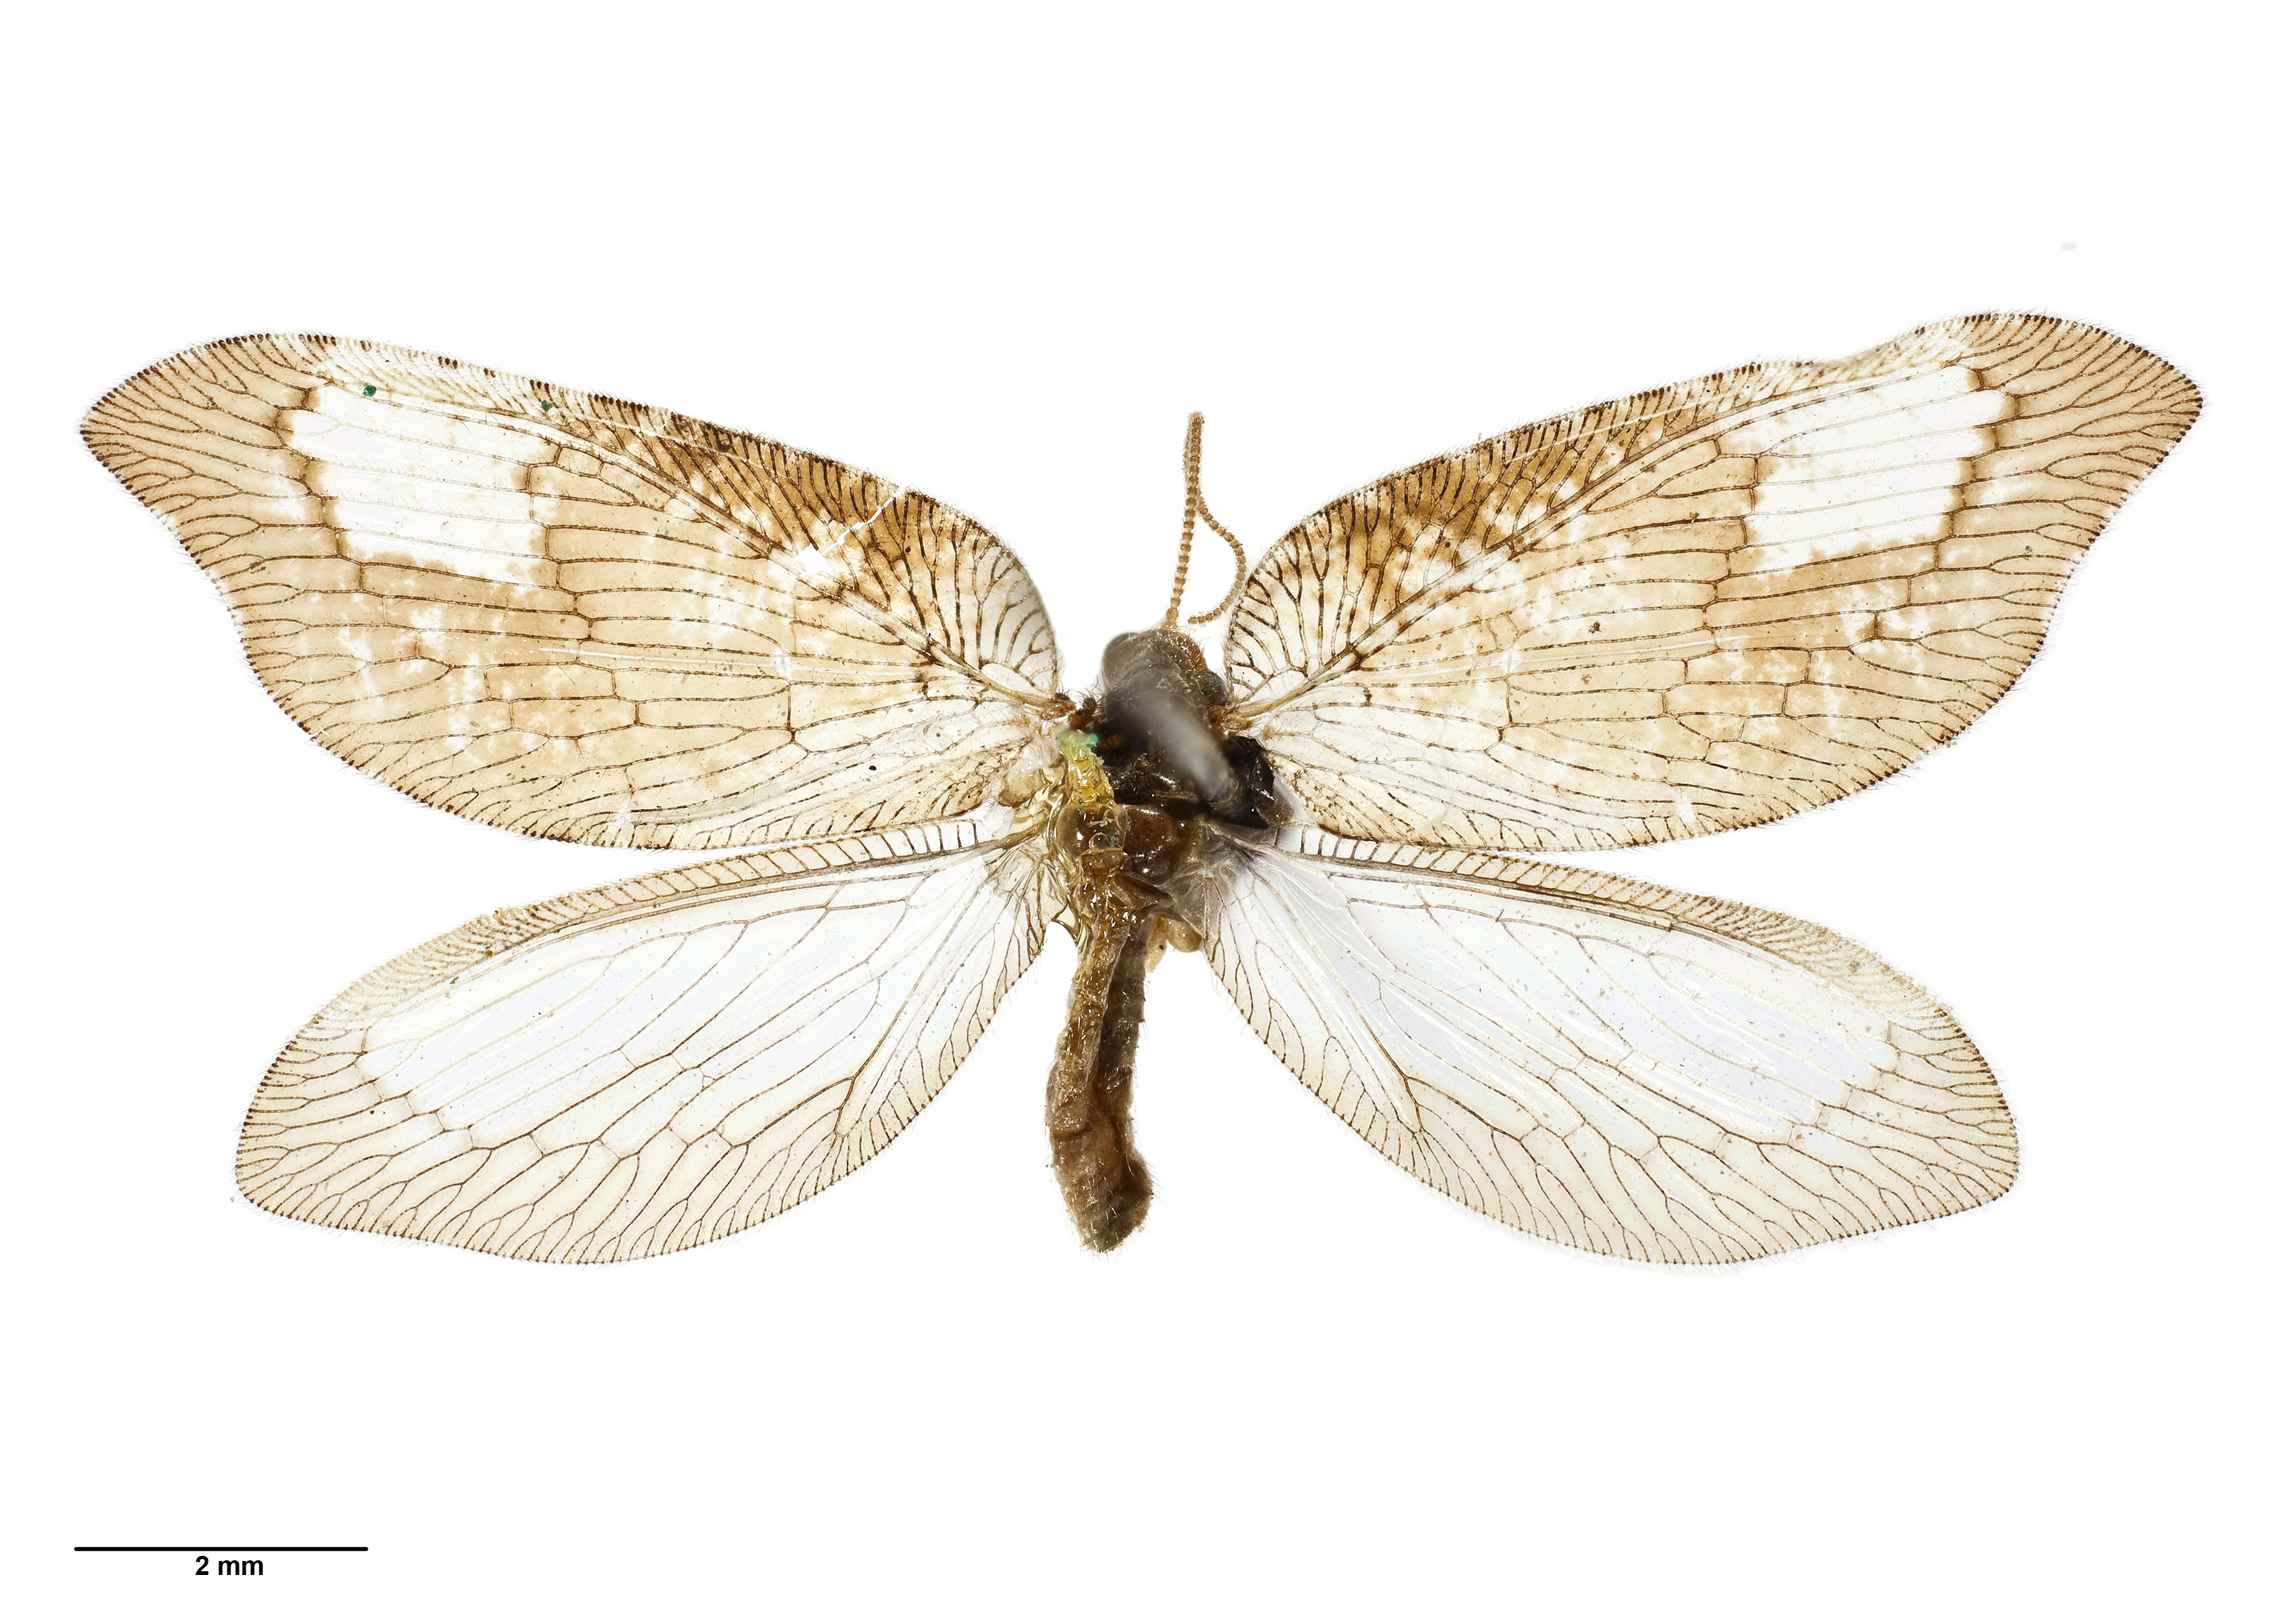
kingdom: Animalia
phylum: Arthropoda
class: Insecta
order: Neuroptera
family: Hemerobiidae
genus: Drepanacra
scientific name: Drepanacra binocula
